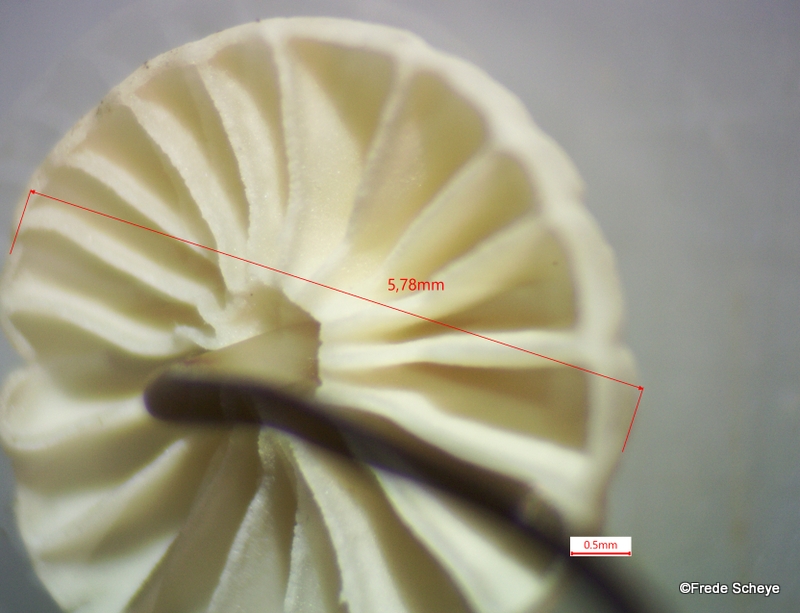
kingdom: Fungi
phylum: Basidiomycota
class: Agaricomycetes
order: Agaricales
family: Marasmiaceae
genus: Marasmius
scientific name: Marasmius rotula
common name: hjul-bruskhat
